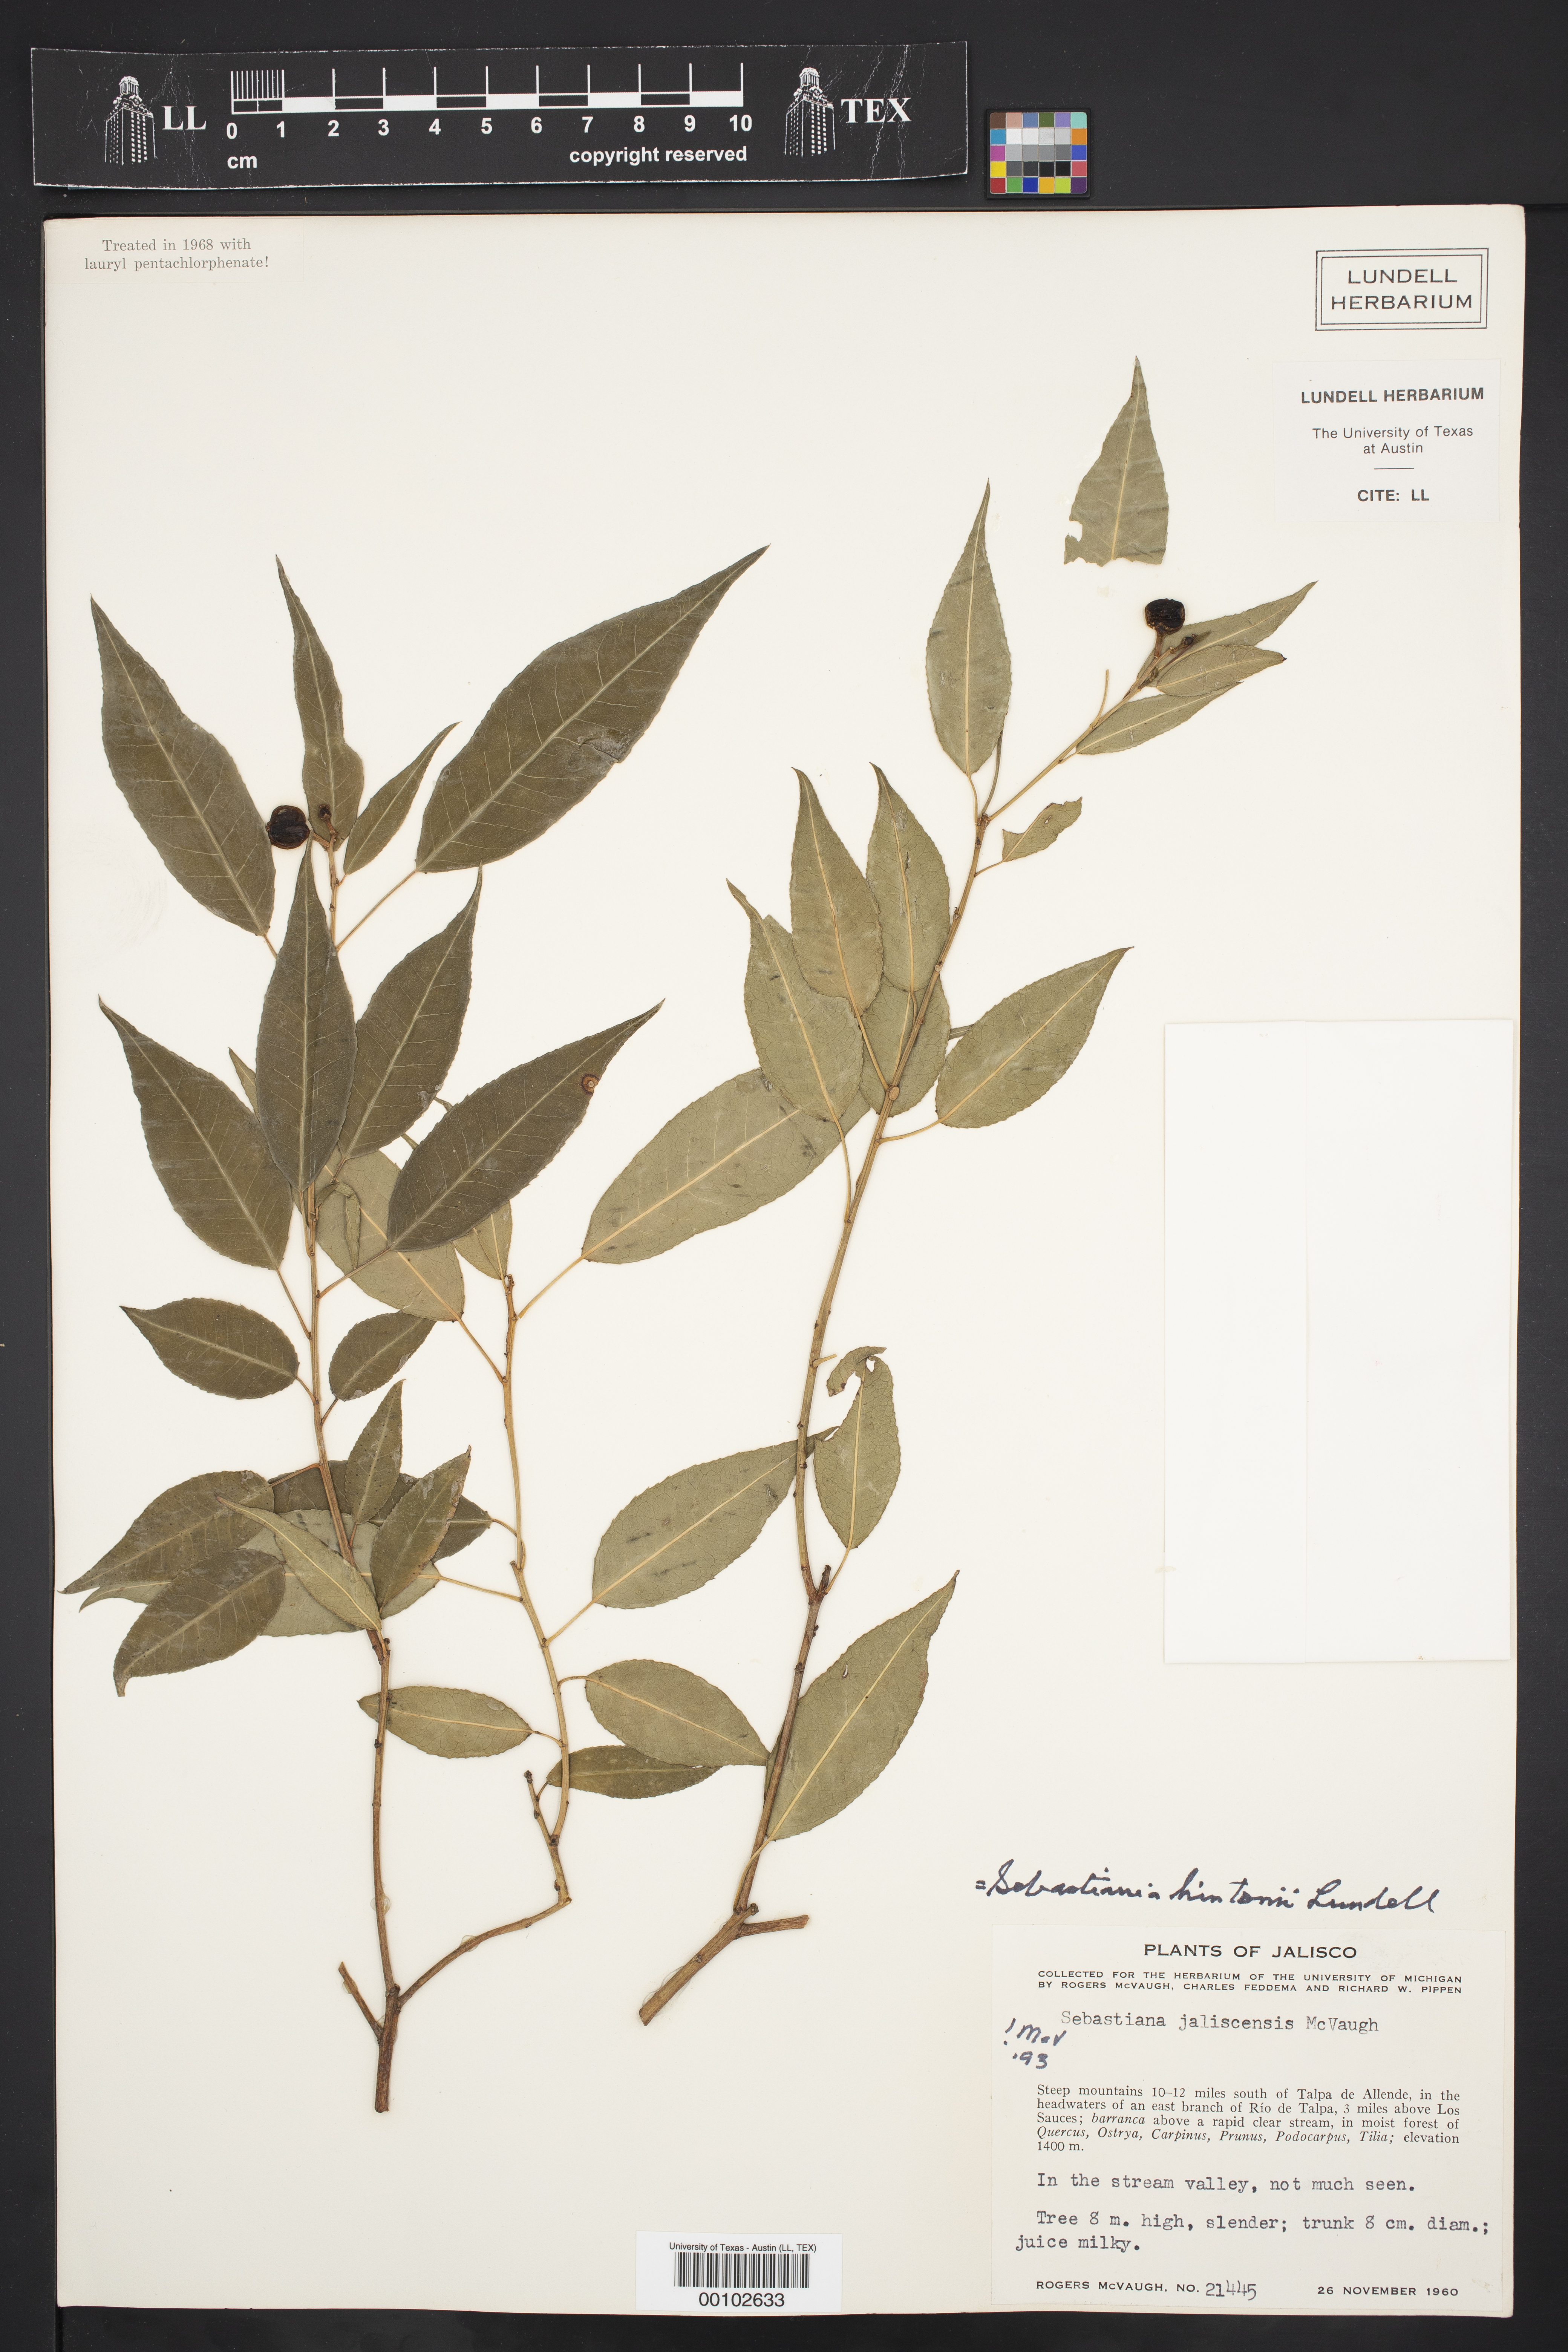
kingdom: Plantae
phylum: Tracheophyta
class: Magnoliopsida
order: Malpighiales
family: Euphorbiaceae
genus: Sebastiania
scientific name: Sebastiania hintonii
